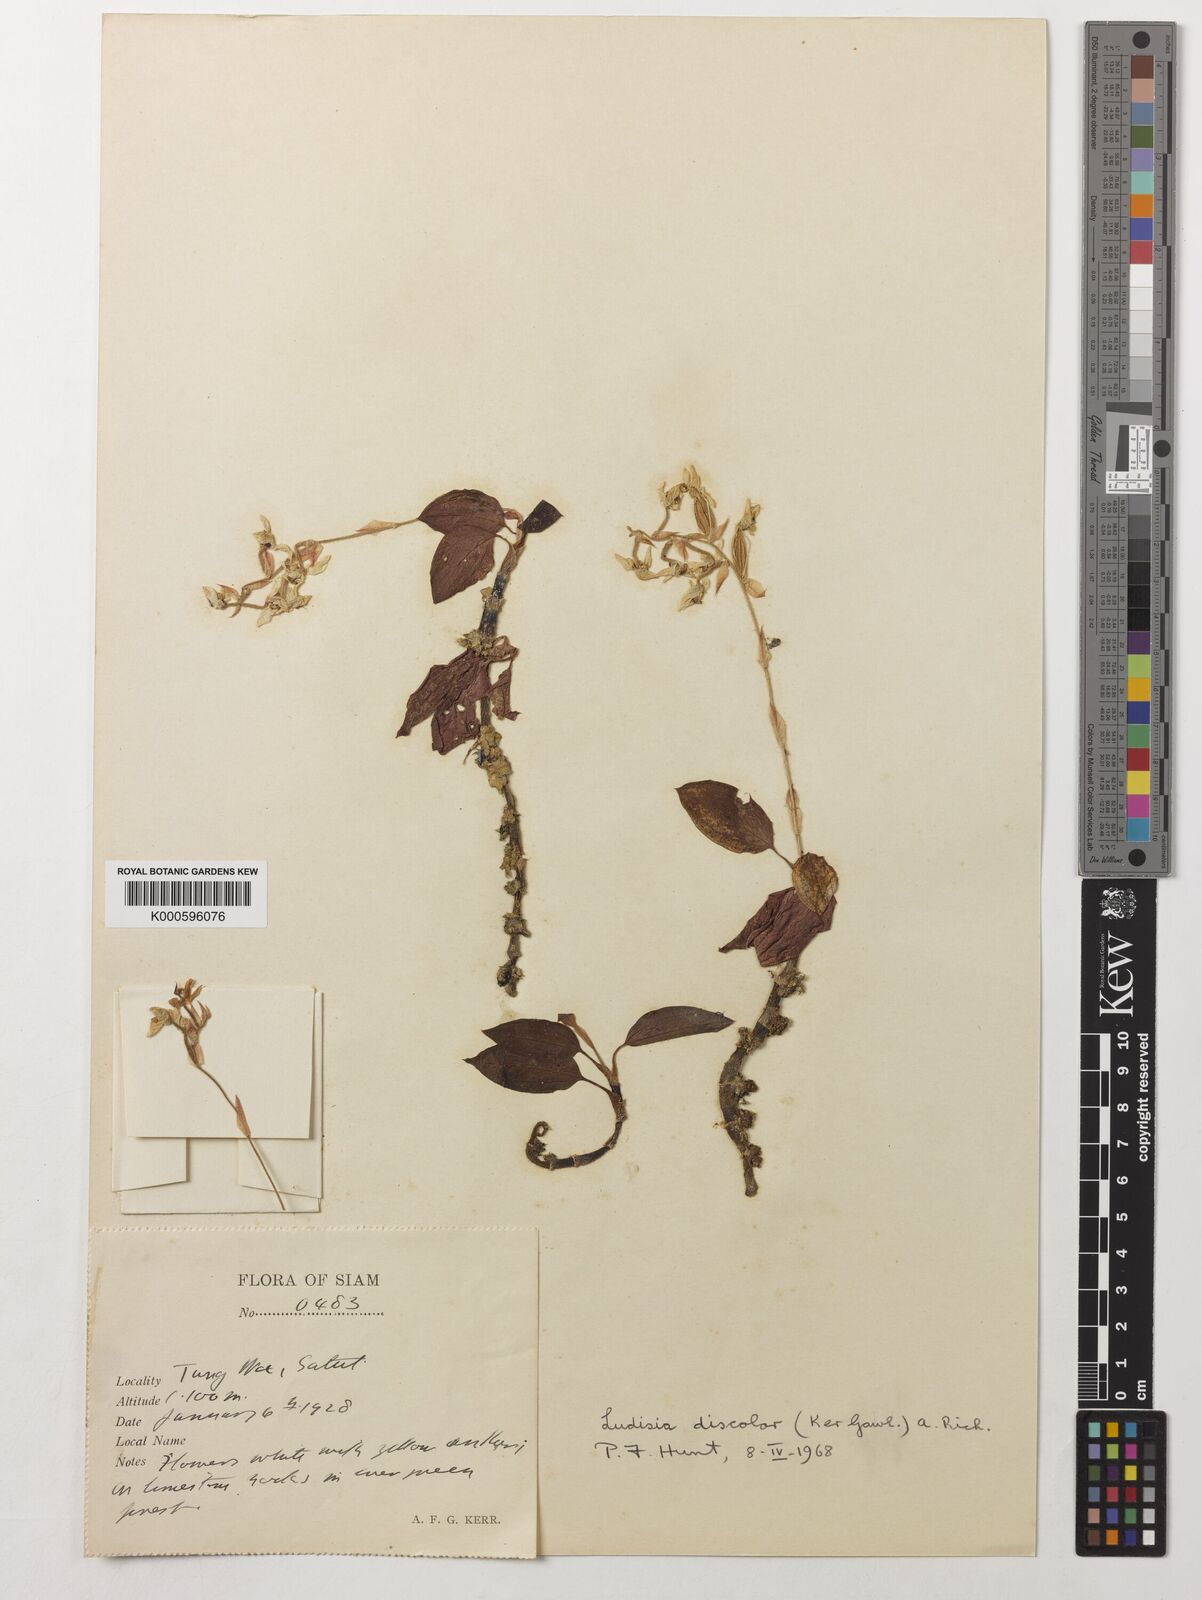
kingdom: Plantae
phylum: Tracheophyta
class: Liliopsida
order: Asparagales
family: Orchidaceae
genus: Ludisia
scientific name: Ludisia
